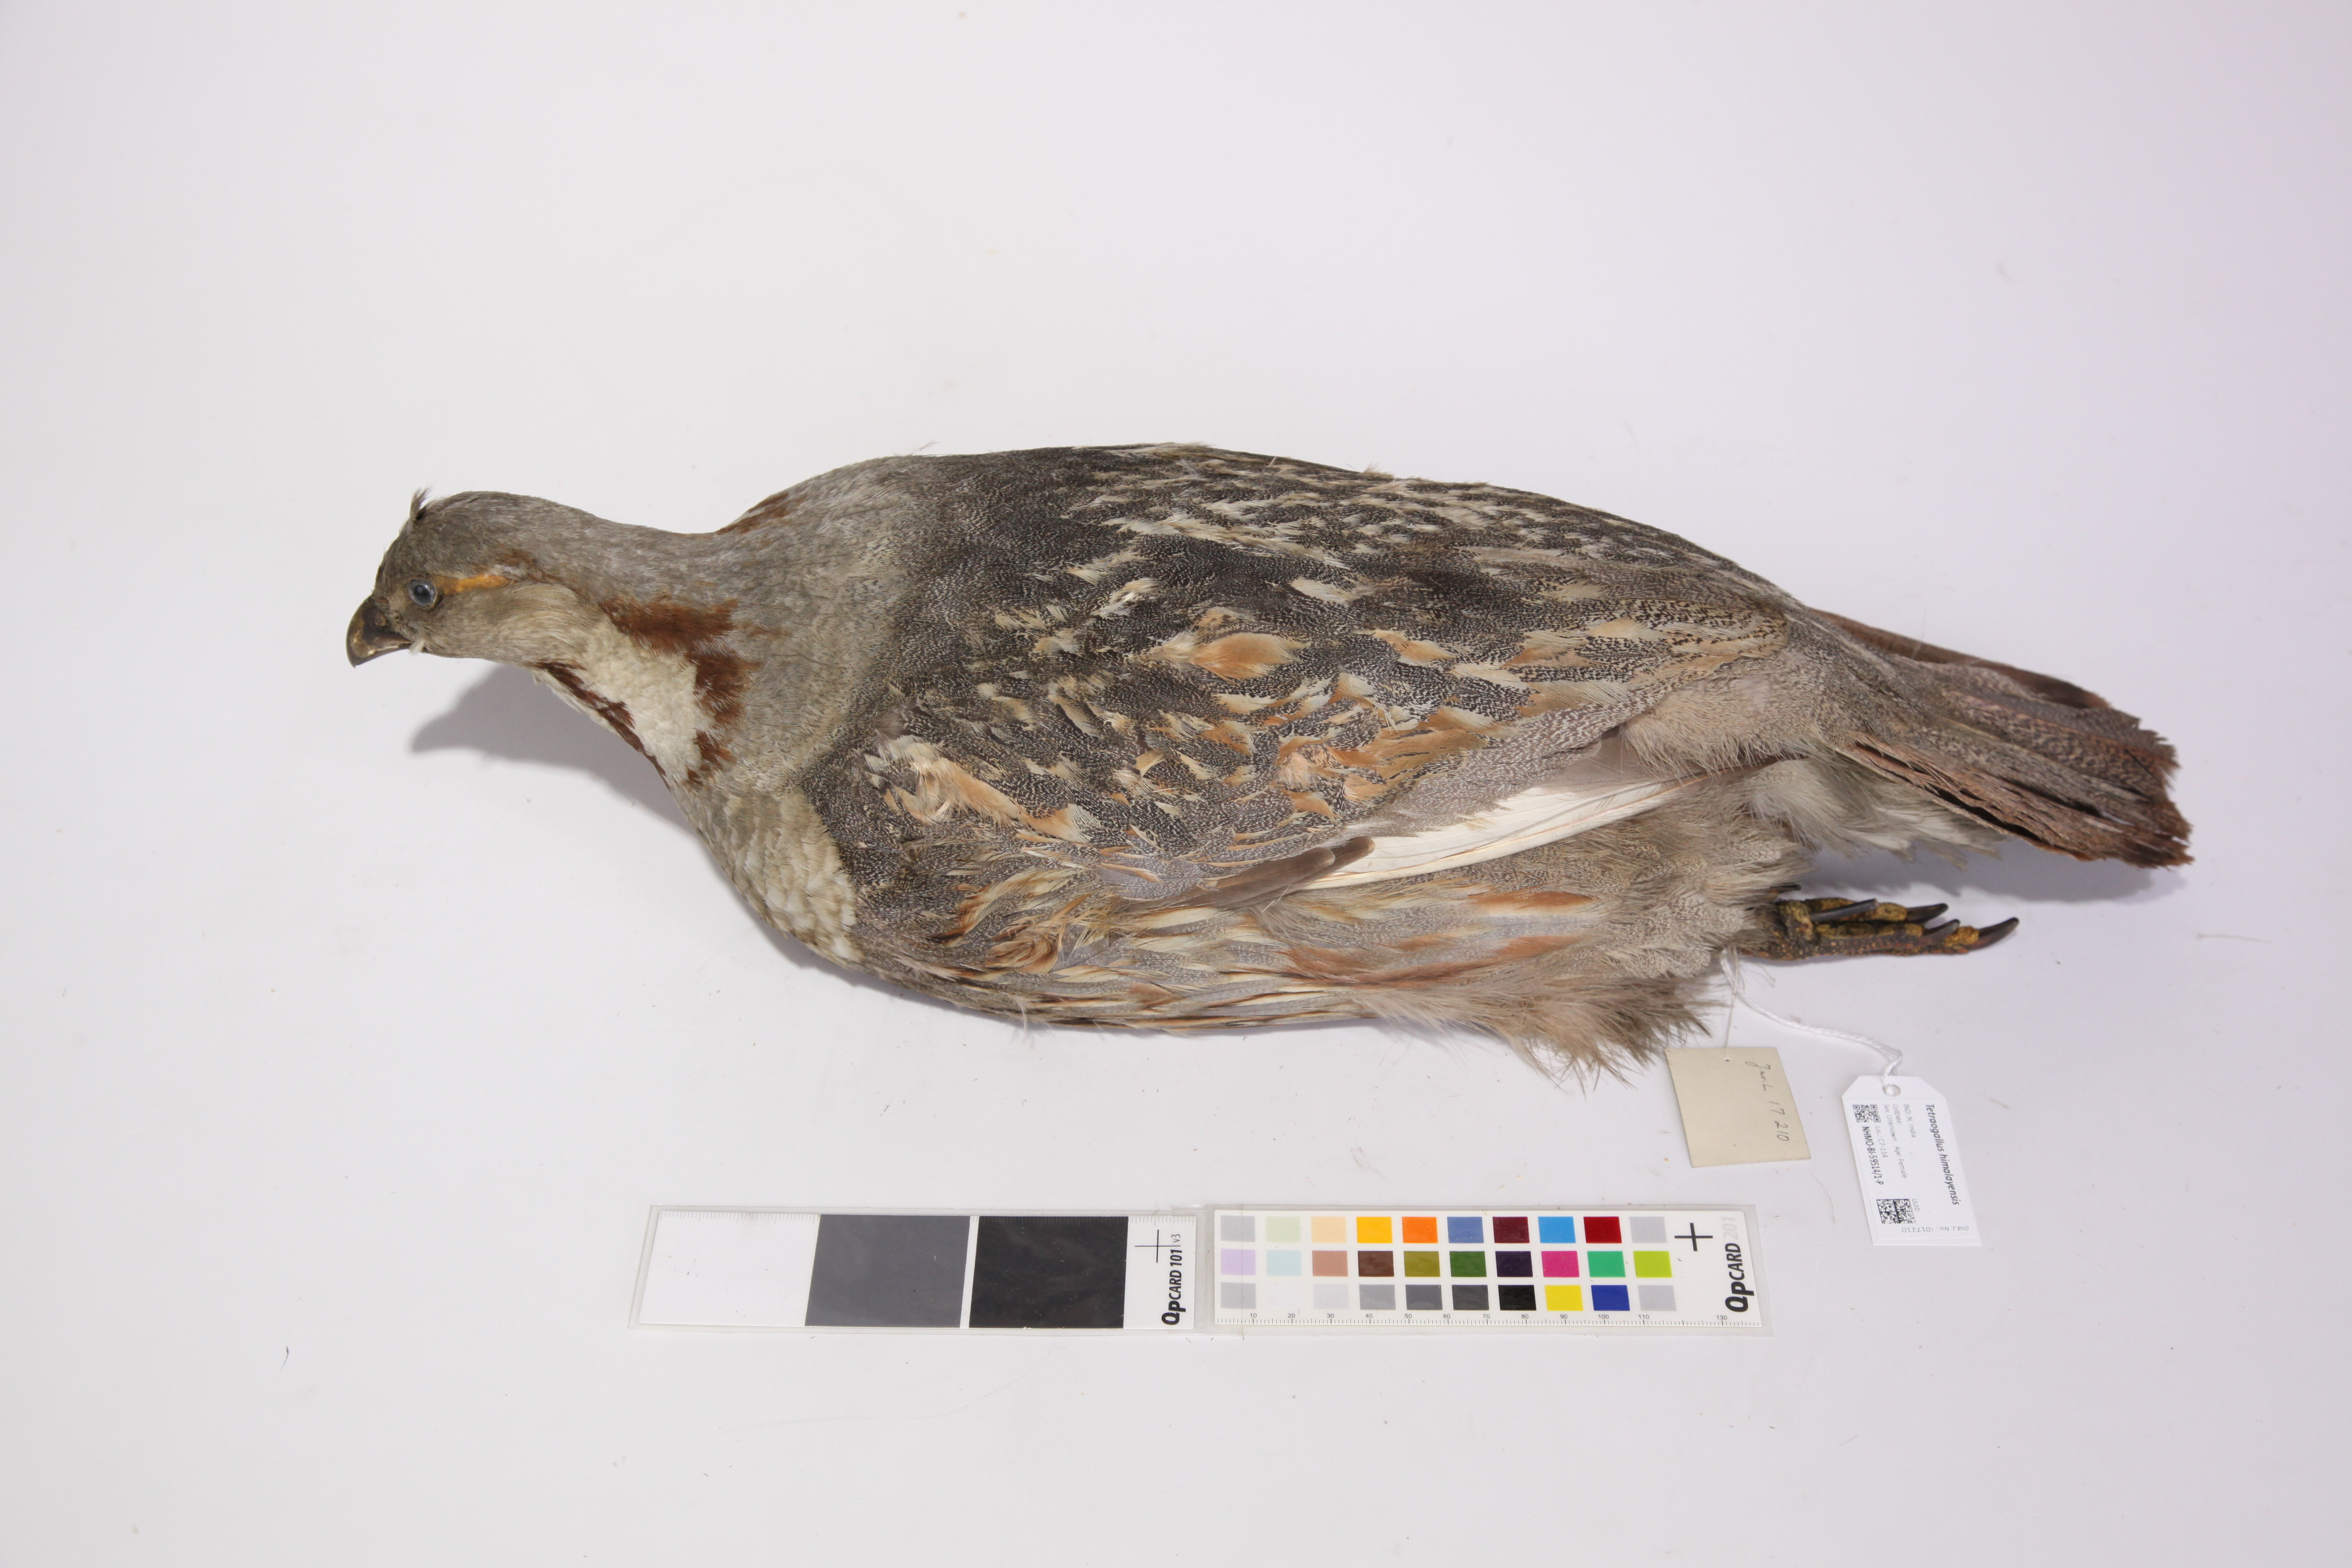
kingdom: Animalia
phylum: Chordata
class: Aves
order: Galliformes
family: Phasianidae
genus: Tetraogallus
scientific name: Tetraogallus himalayensis
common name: Himalayan snowcock
